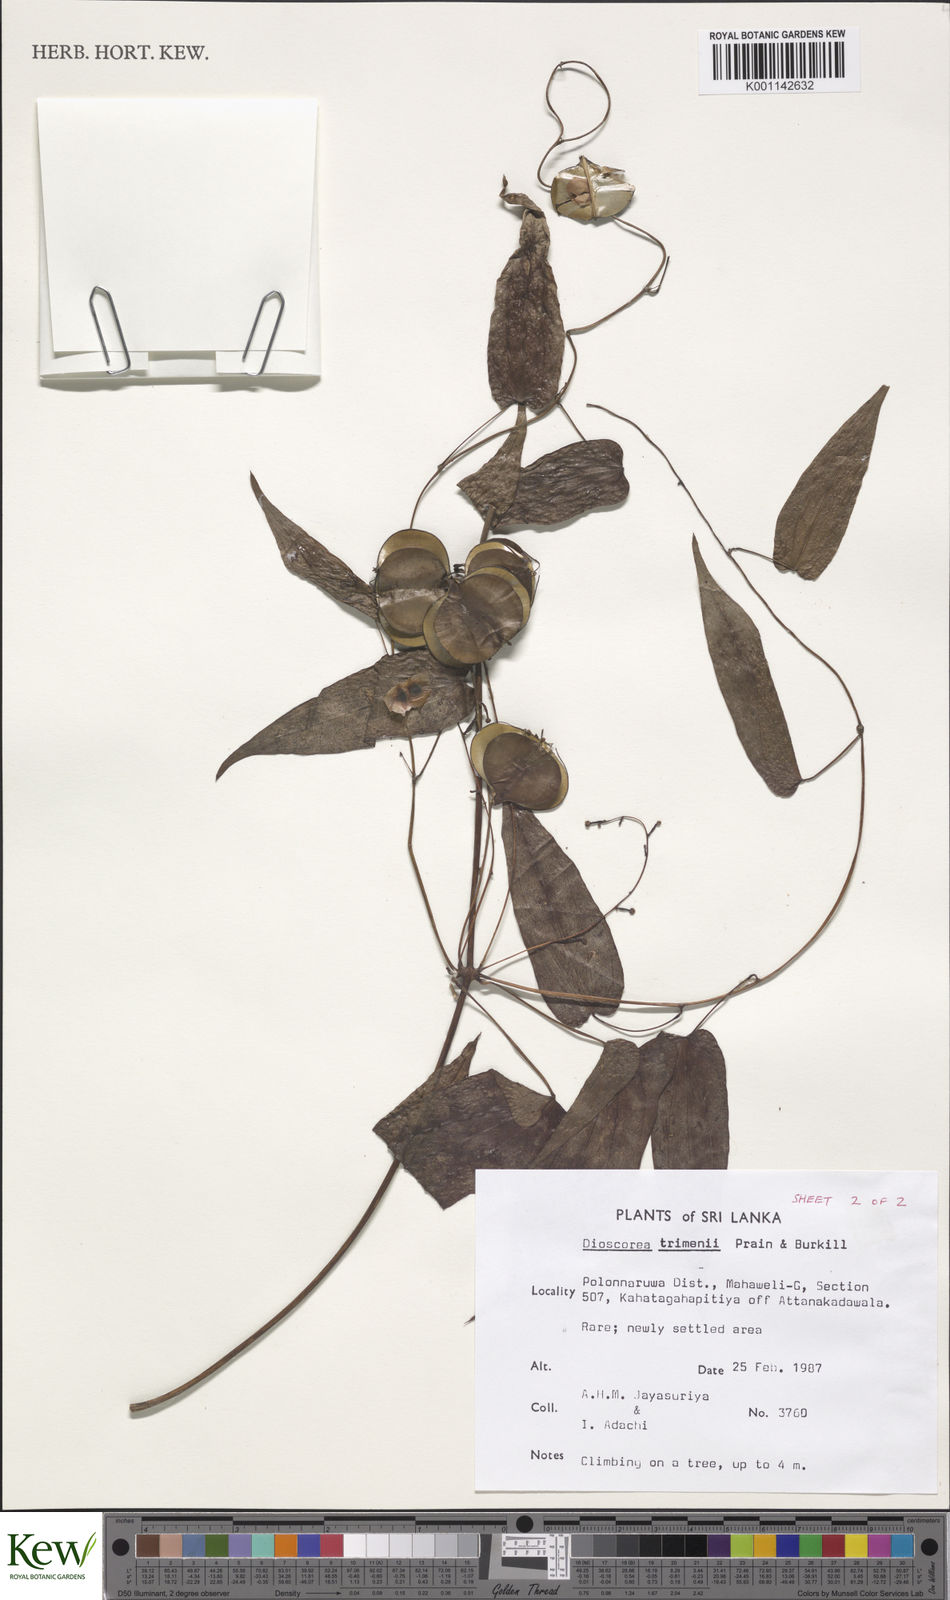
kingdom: Plantae
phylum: Tracheophyta
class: Liliopsida
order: Dioscoreales
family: Dioscoreaceae
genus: Dioscorea
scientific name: Dioscorea trimenii
